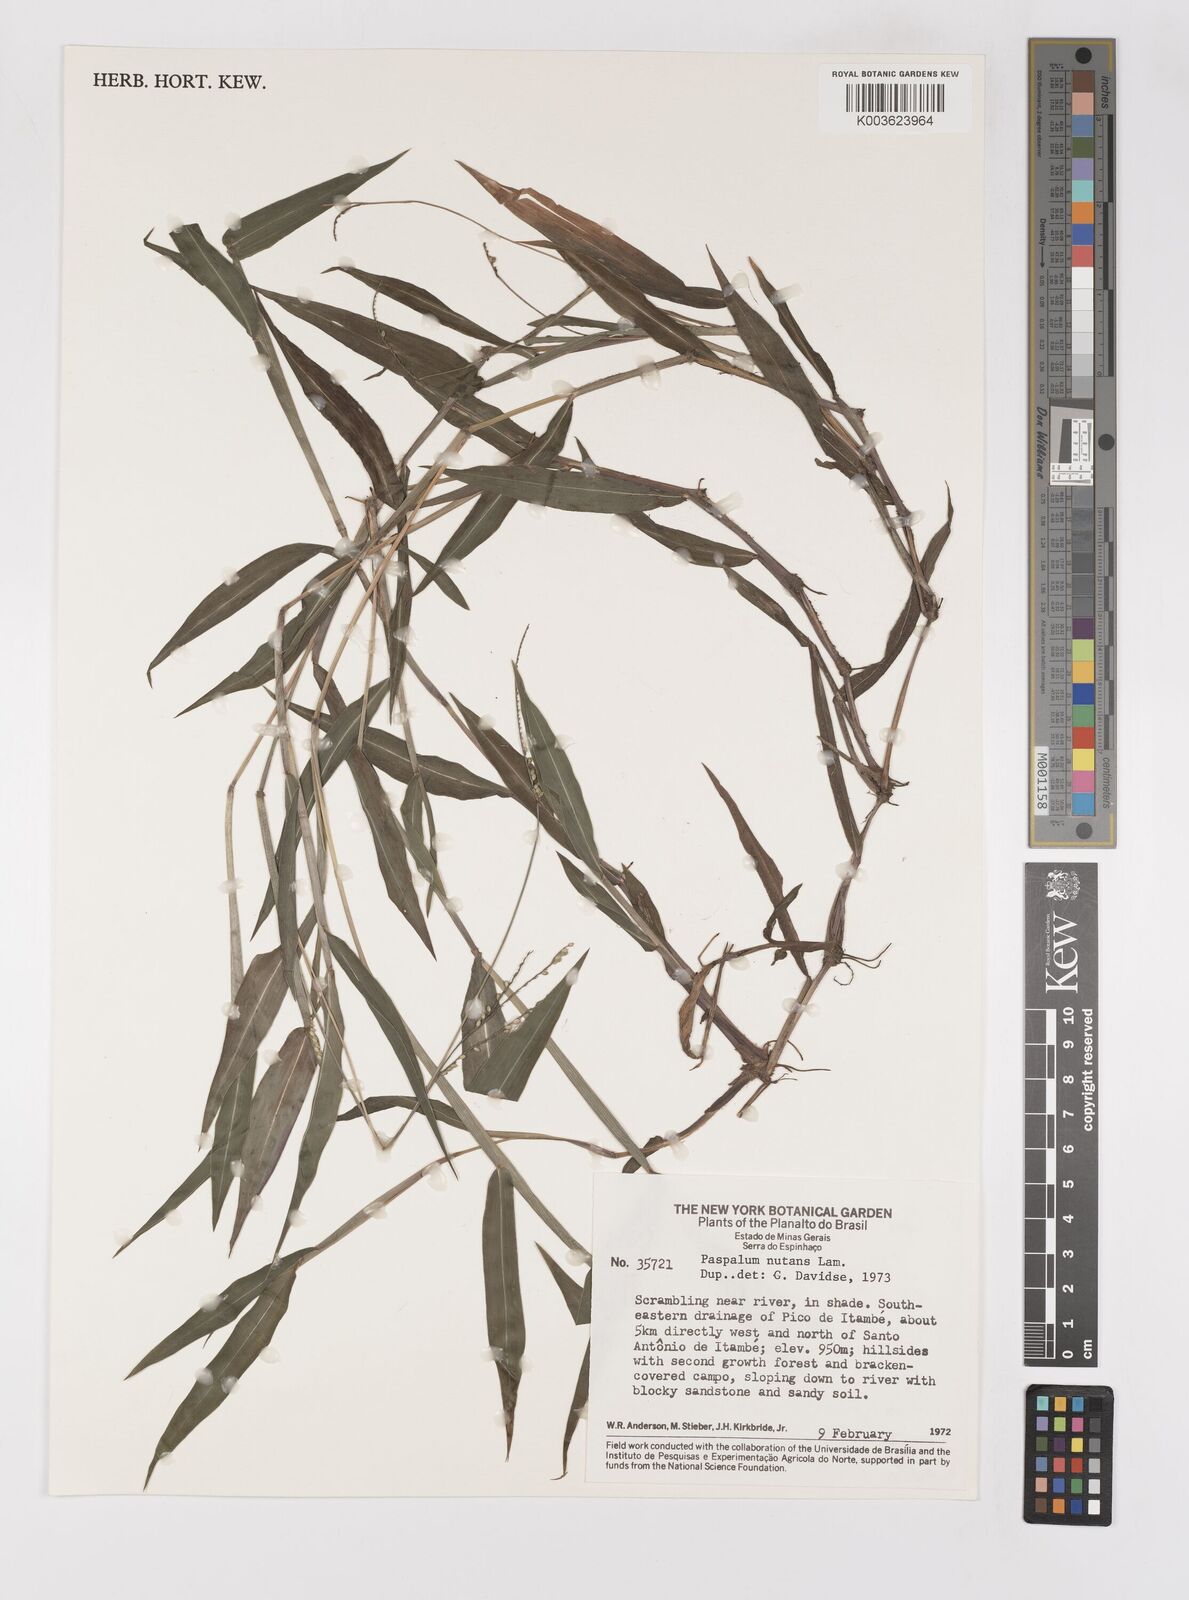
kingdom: Plantae
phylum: Tracheophyta
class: Liliopsida
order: Poales
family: Poaceae
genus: Paspalum
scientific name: Paspalum nutans
